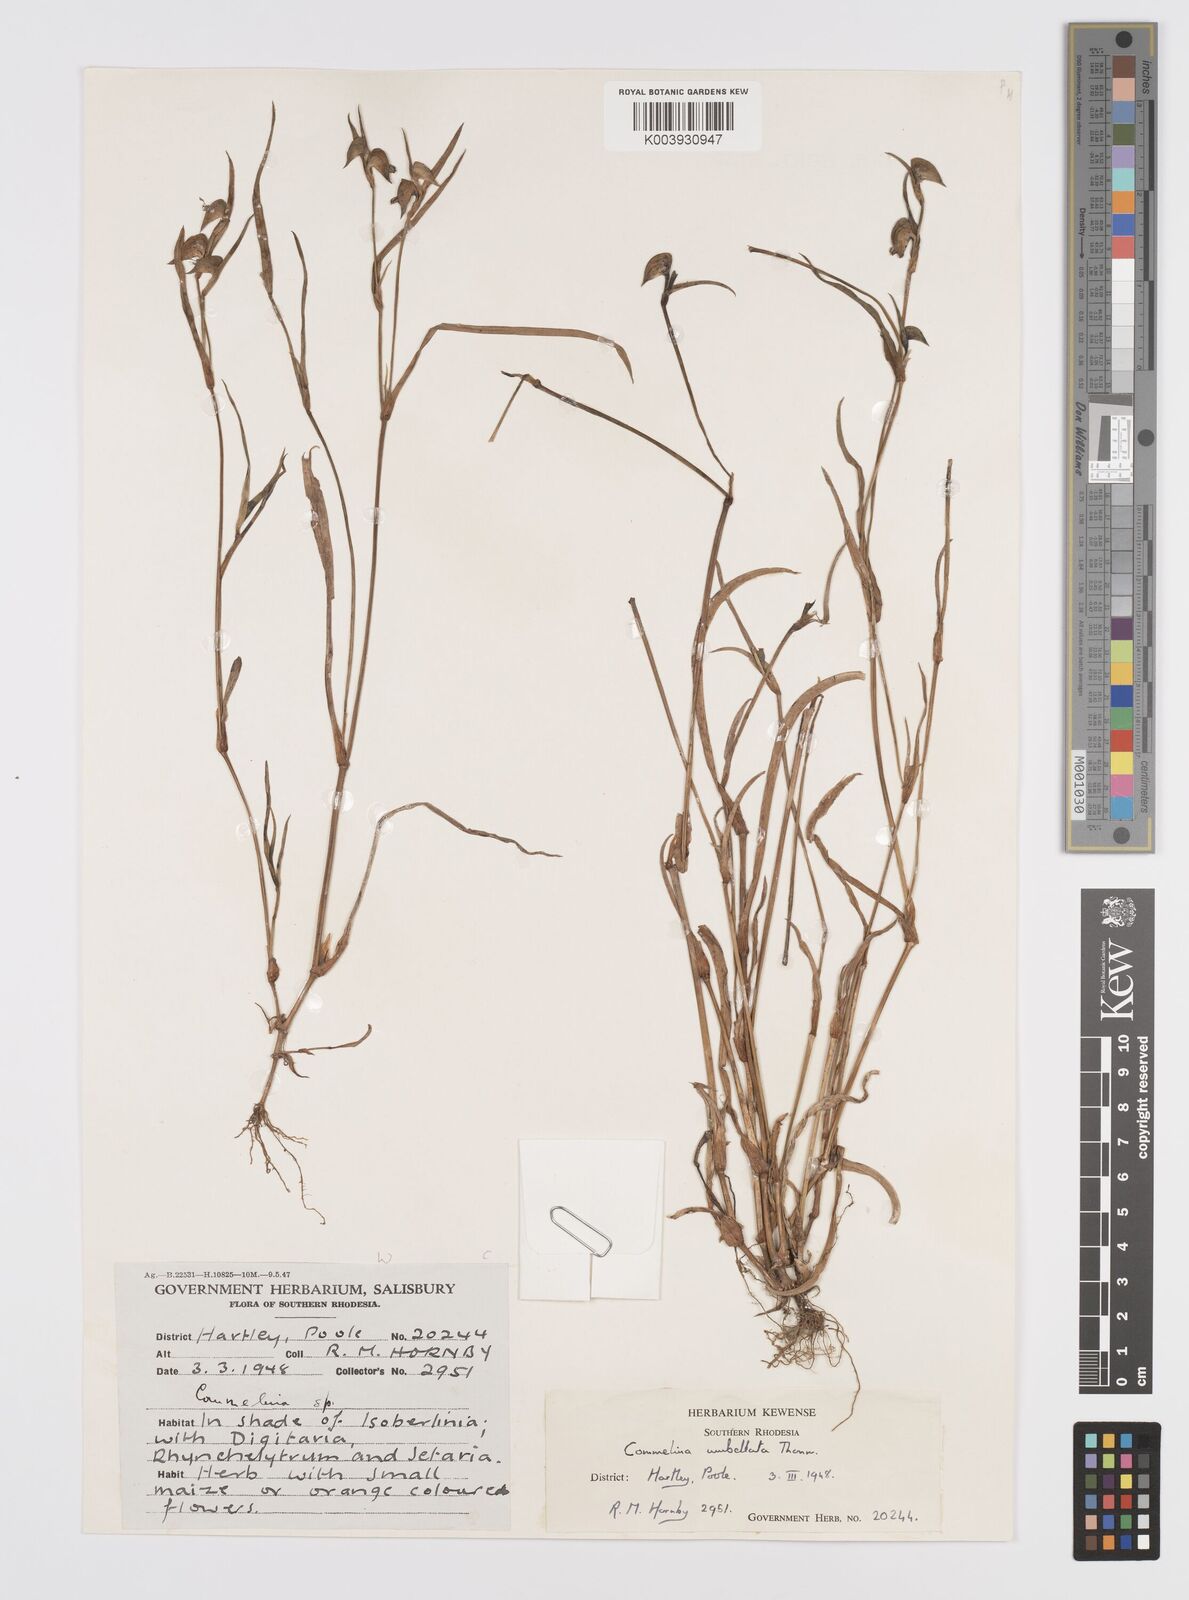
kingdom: Plantae
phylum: Tracheophyta
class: Liliopsida
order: Commelinales
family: Commelinaceae
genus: Commelina
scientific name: Commelina nigritana
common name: African dayflower
